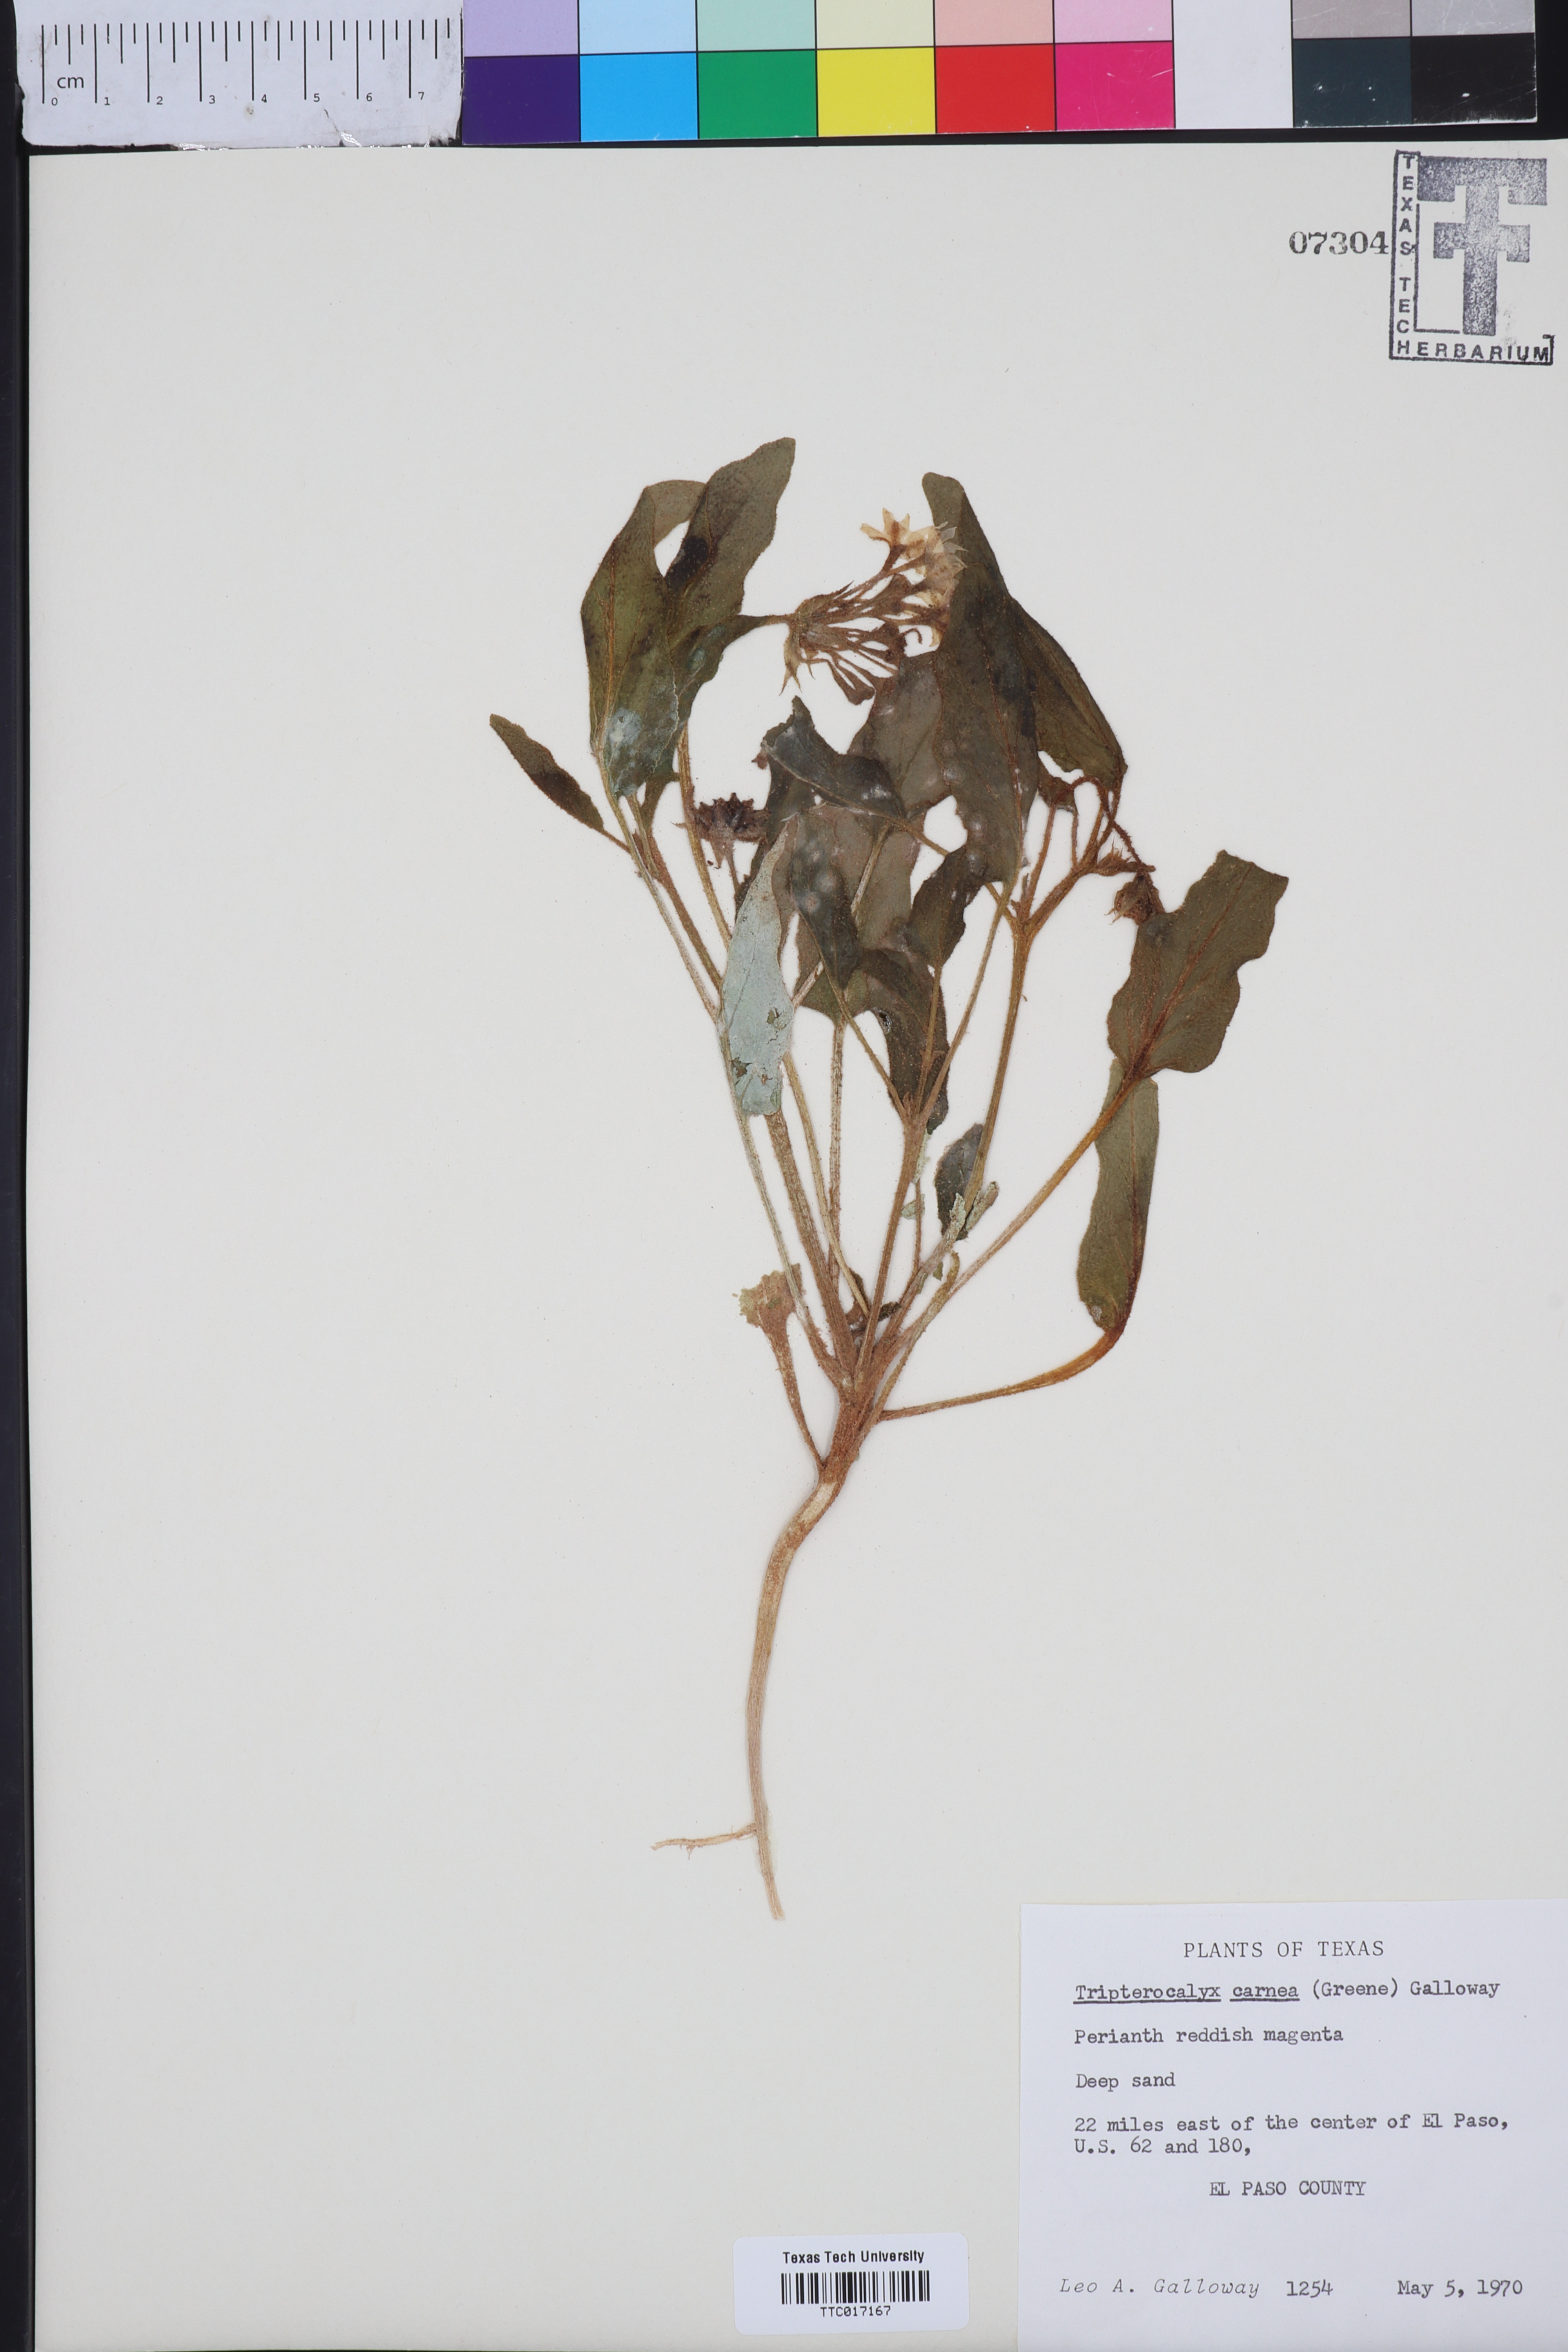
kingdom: Plantae
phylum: Tracheophyta
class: Magnoliopsida
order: Caryophyllales
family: Nyctaginaceae
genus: Tripterocalyx
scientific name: Tripterocalyx carneus
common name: Winged sandpuffs
